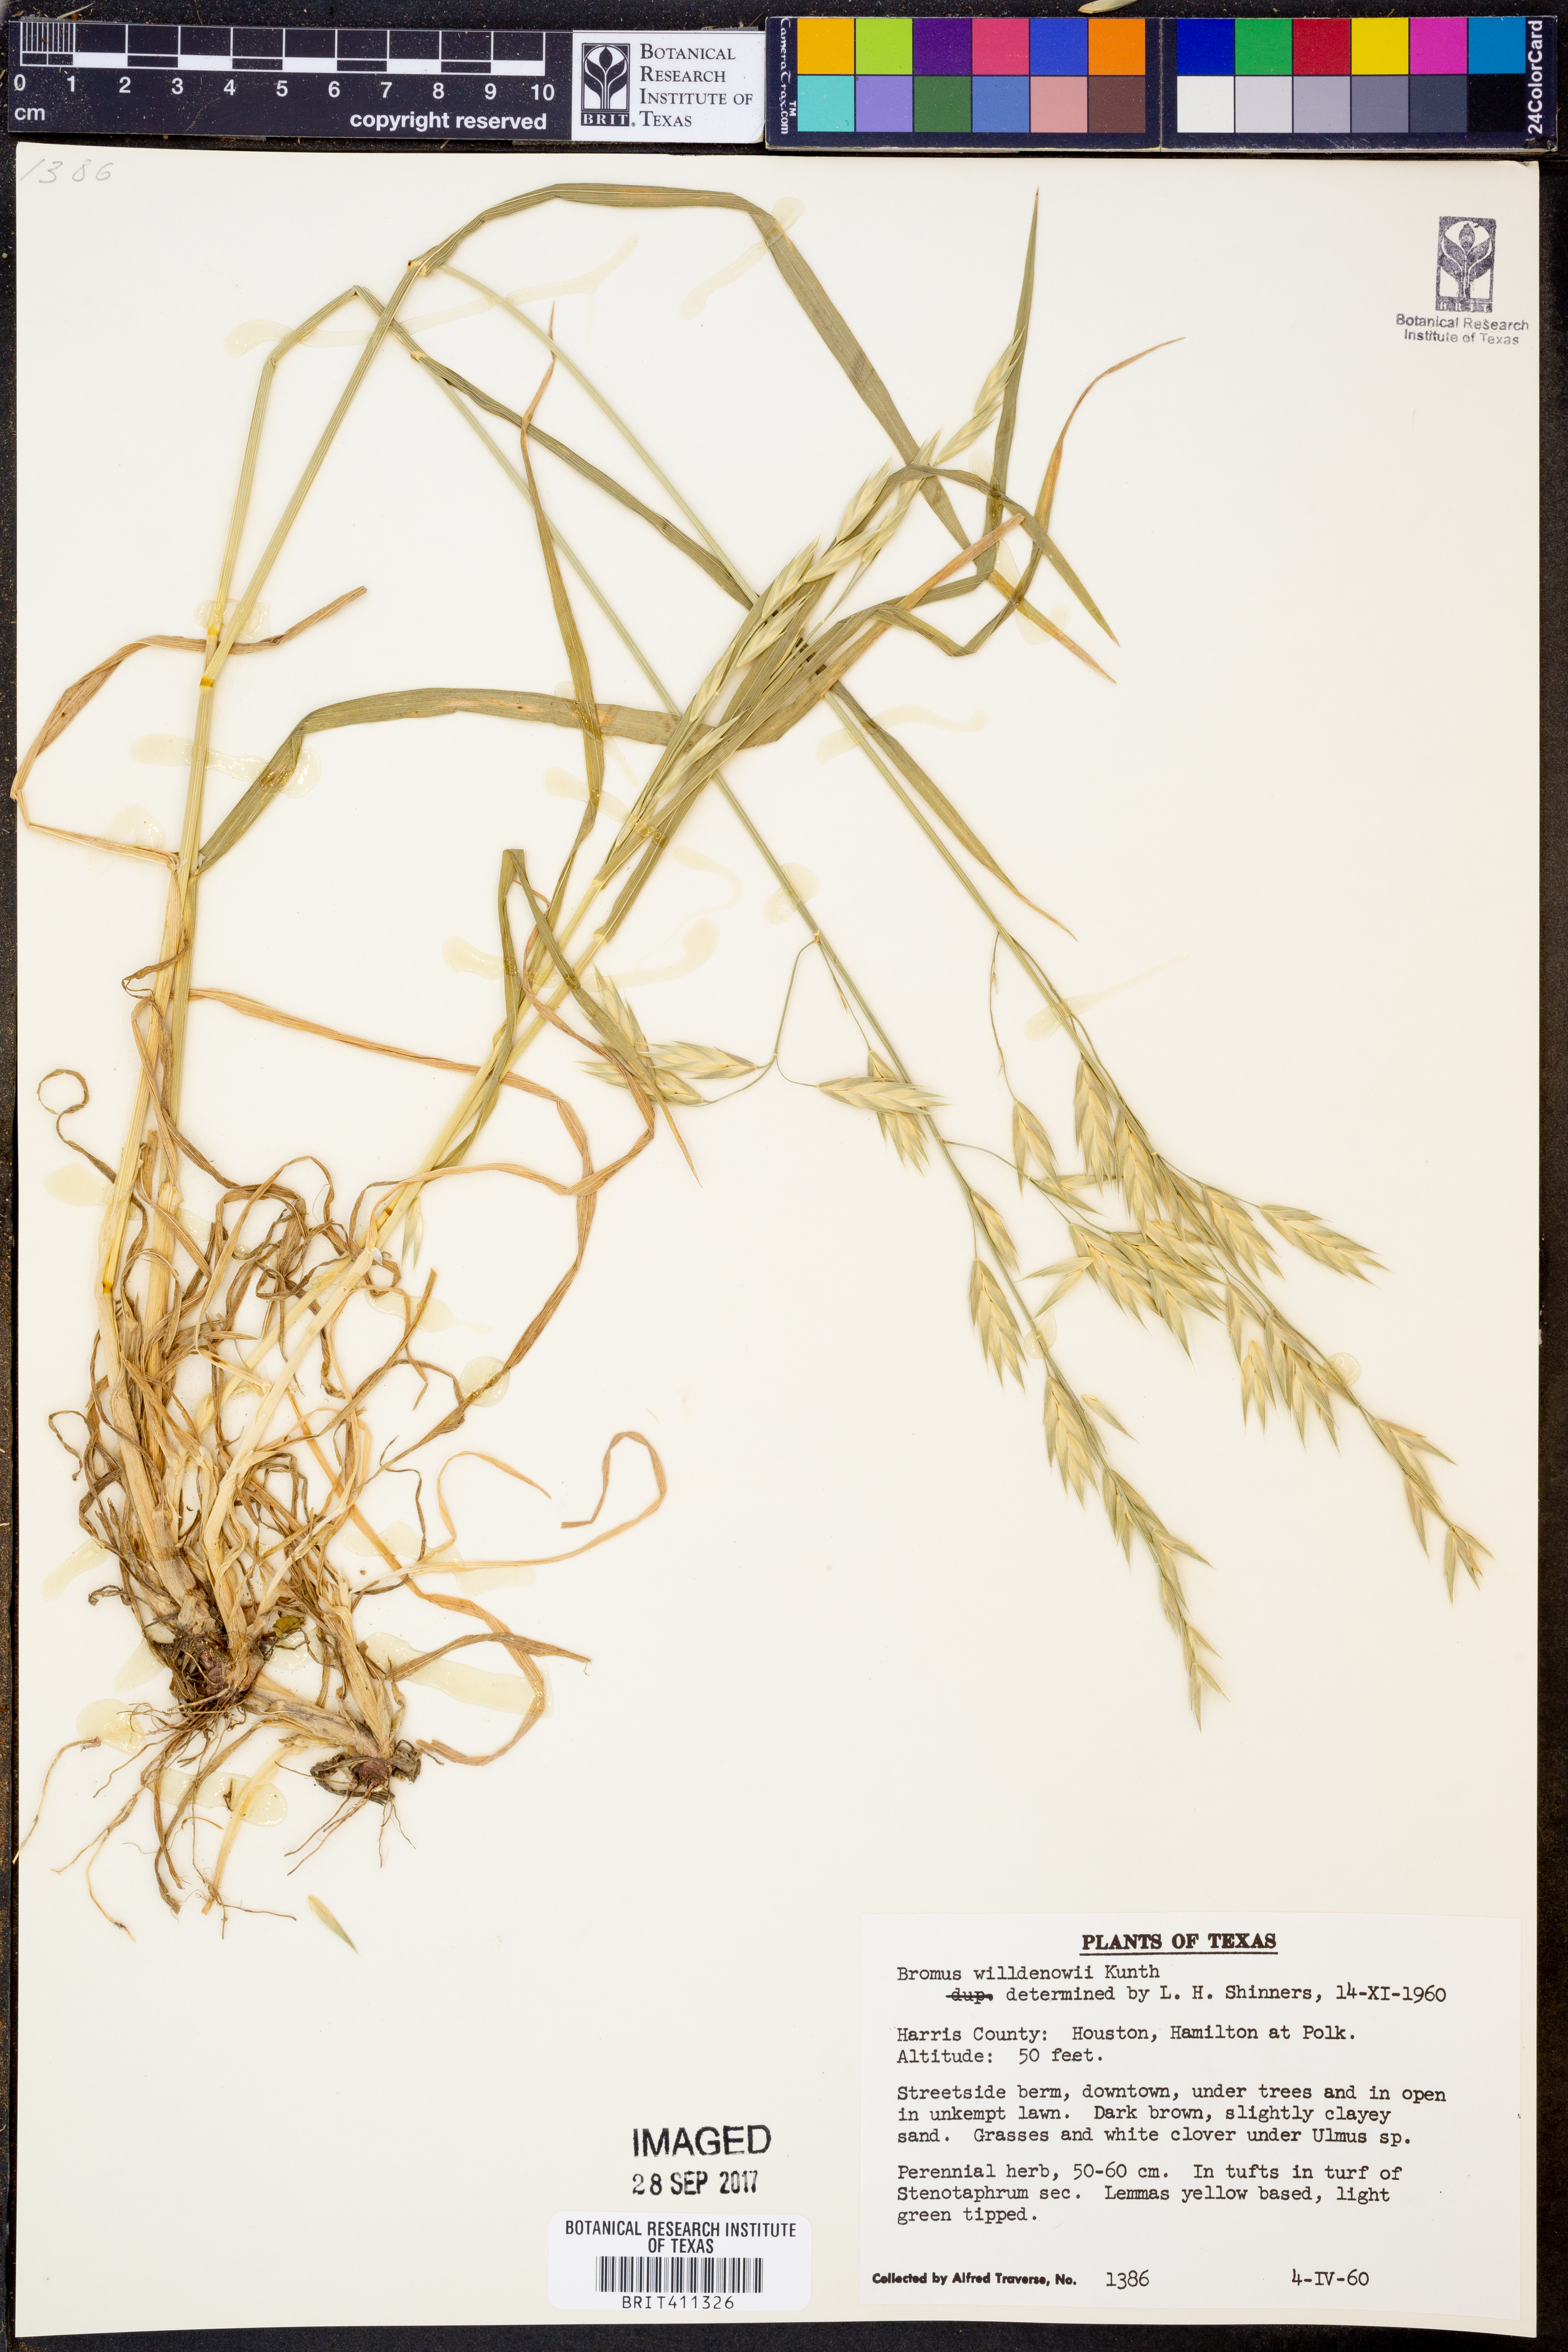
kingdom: Plantae
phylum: Tracheophyta
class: Liliopsida
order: Poales
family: Poaceae
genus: Bromus
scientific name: Bromus catharticus
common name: Rescuegrass
